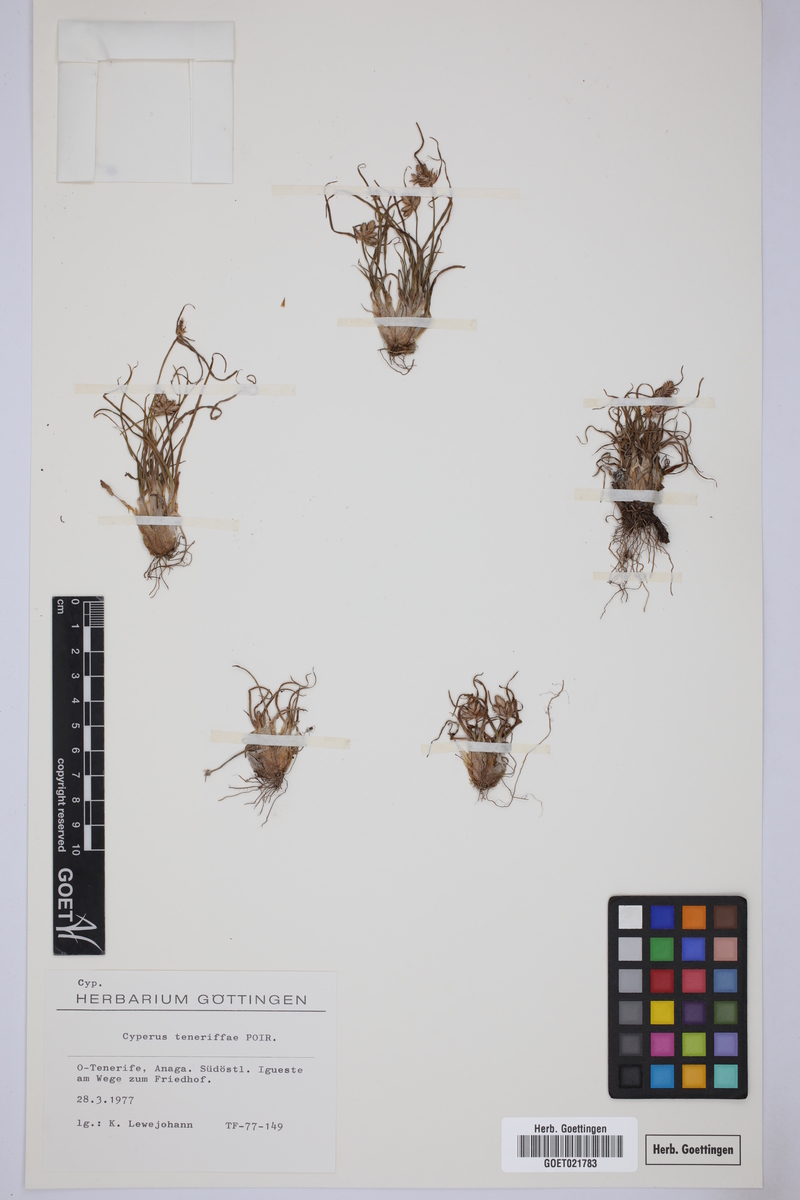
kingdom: Plantae
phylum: Tracheophyta
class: Liliopsida
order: Poales
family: Cyperaceae
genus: Cyperus
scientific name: Cyperus rubicundus
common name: Coco-grass
